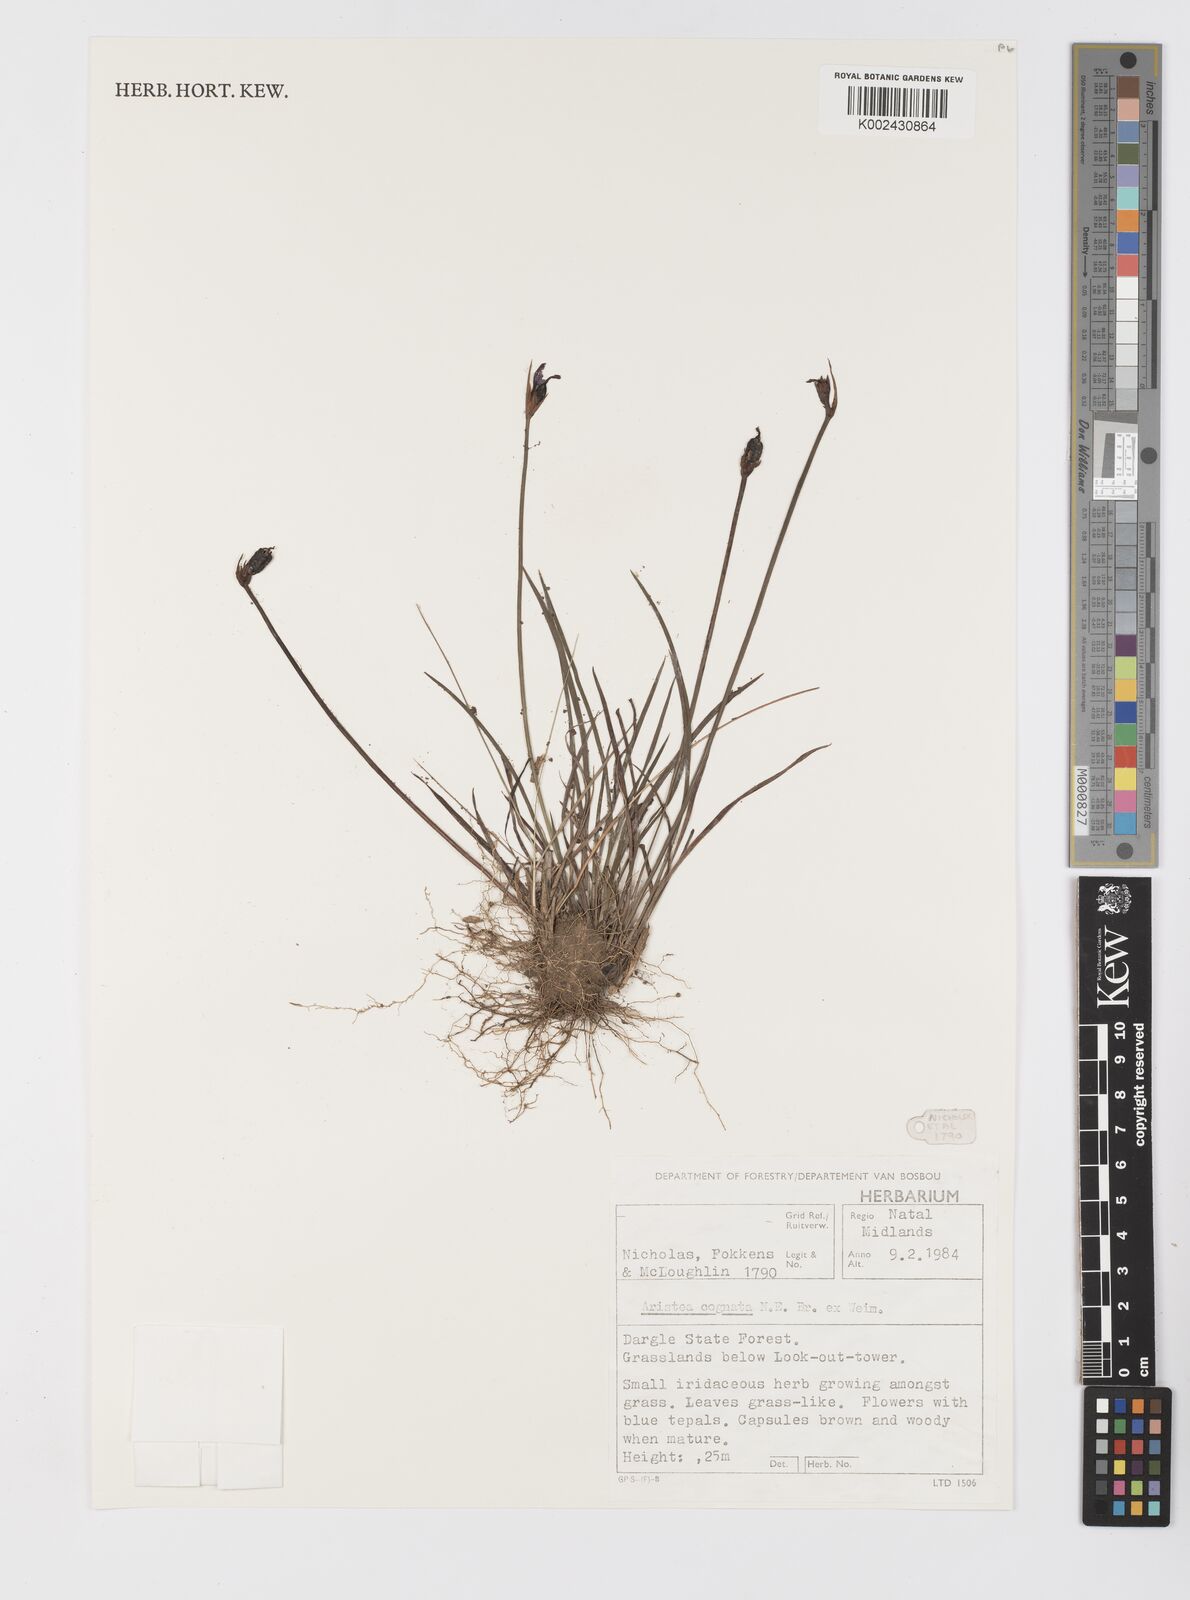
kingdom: Plantae
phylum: Tracheophyta
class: Liliopsida
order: Asparagales
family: Iridaceae
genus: Aristea
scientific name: Aristea abyssinica
